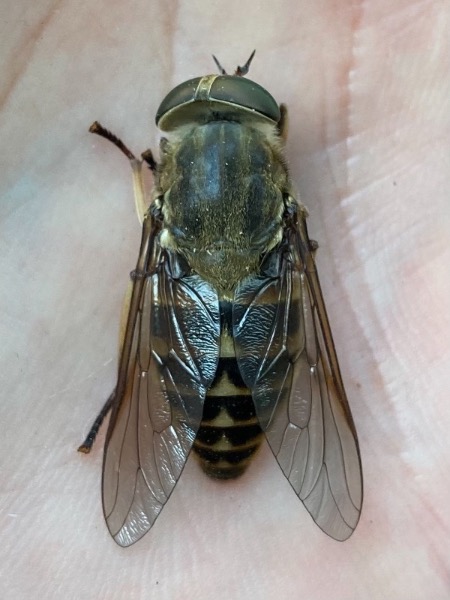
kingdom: Animalia
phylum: Arthropoda
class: Insecta
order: Diptera
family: Tabanidae
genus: Tabanus
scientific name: Tabanus sudeticus
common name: Hesteklæg
